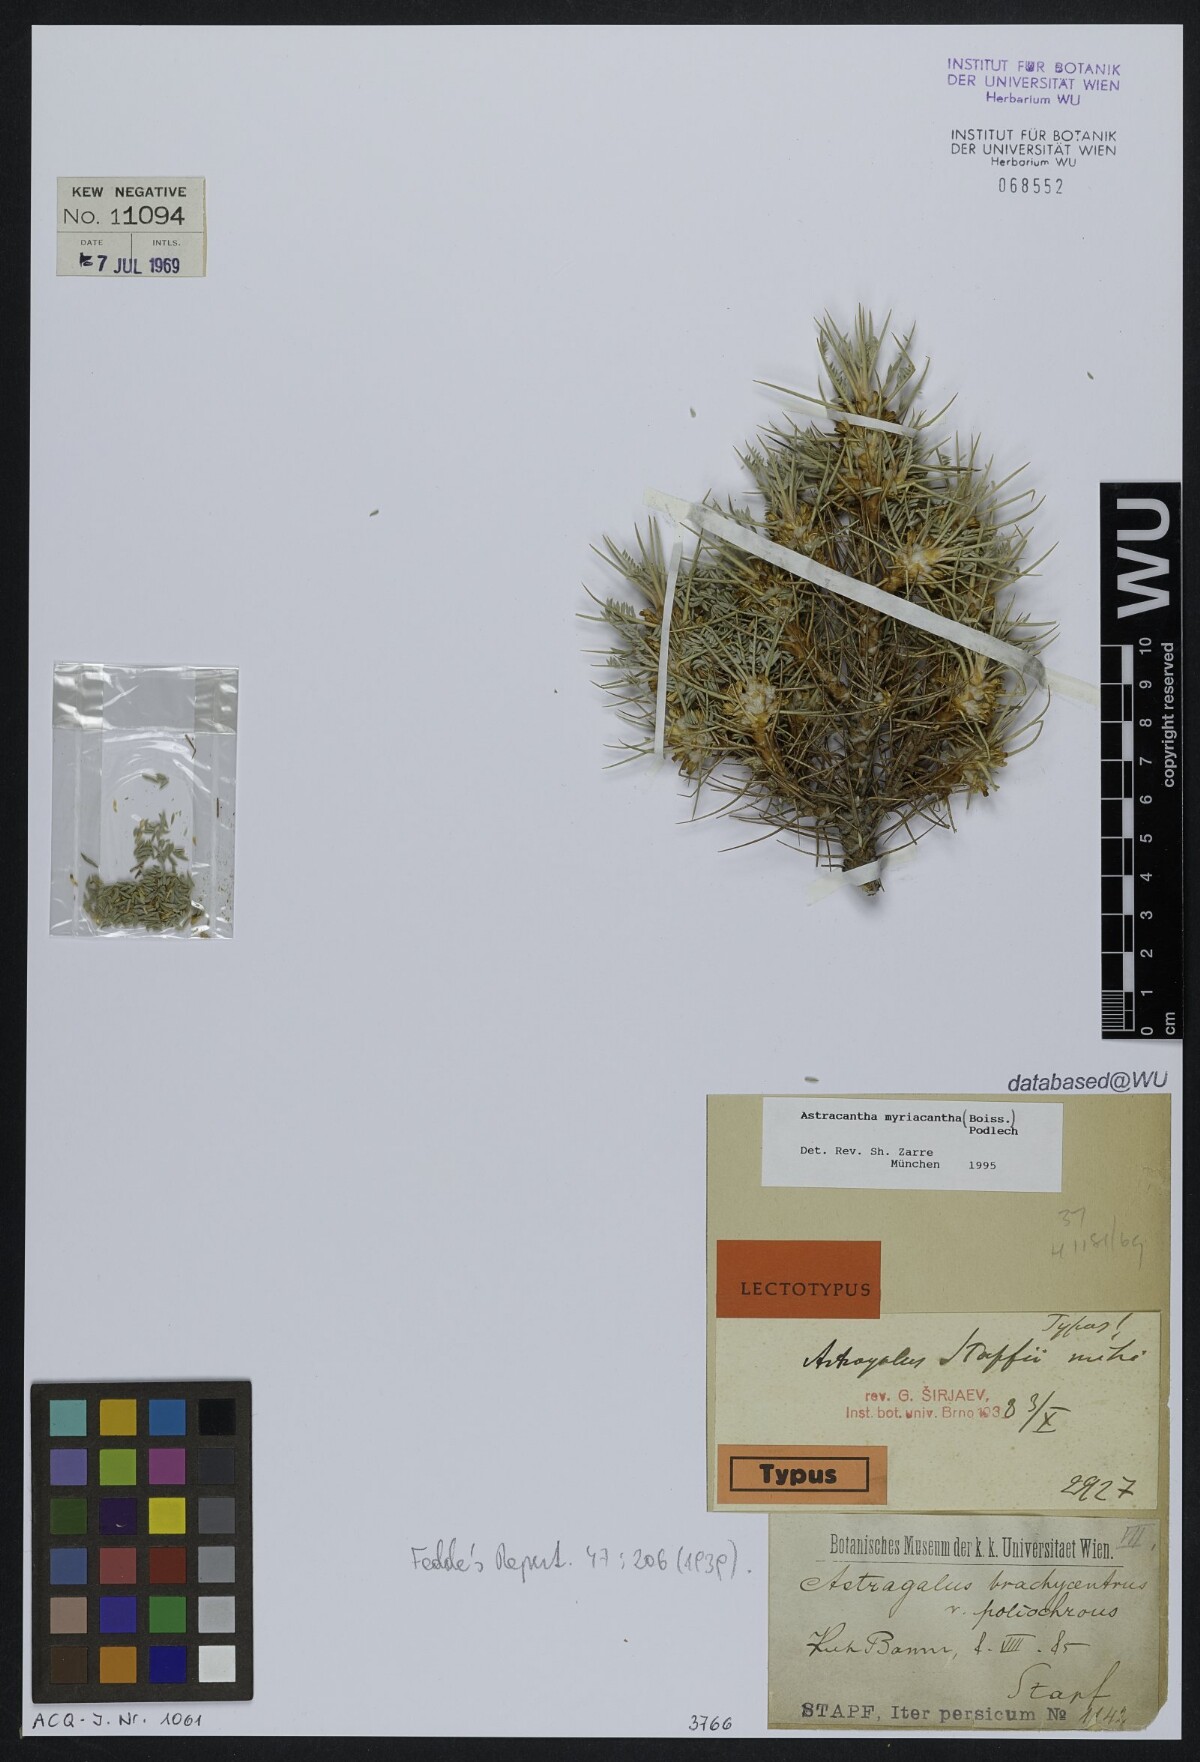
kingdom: Plantae
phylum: Tracheophyta
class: Magnoliopsida
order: Fabales
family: Fabaceae
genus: Astragalus
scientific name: Astragalus myriacanthus
